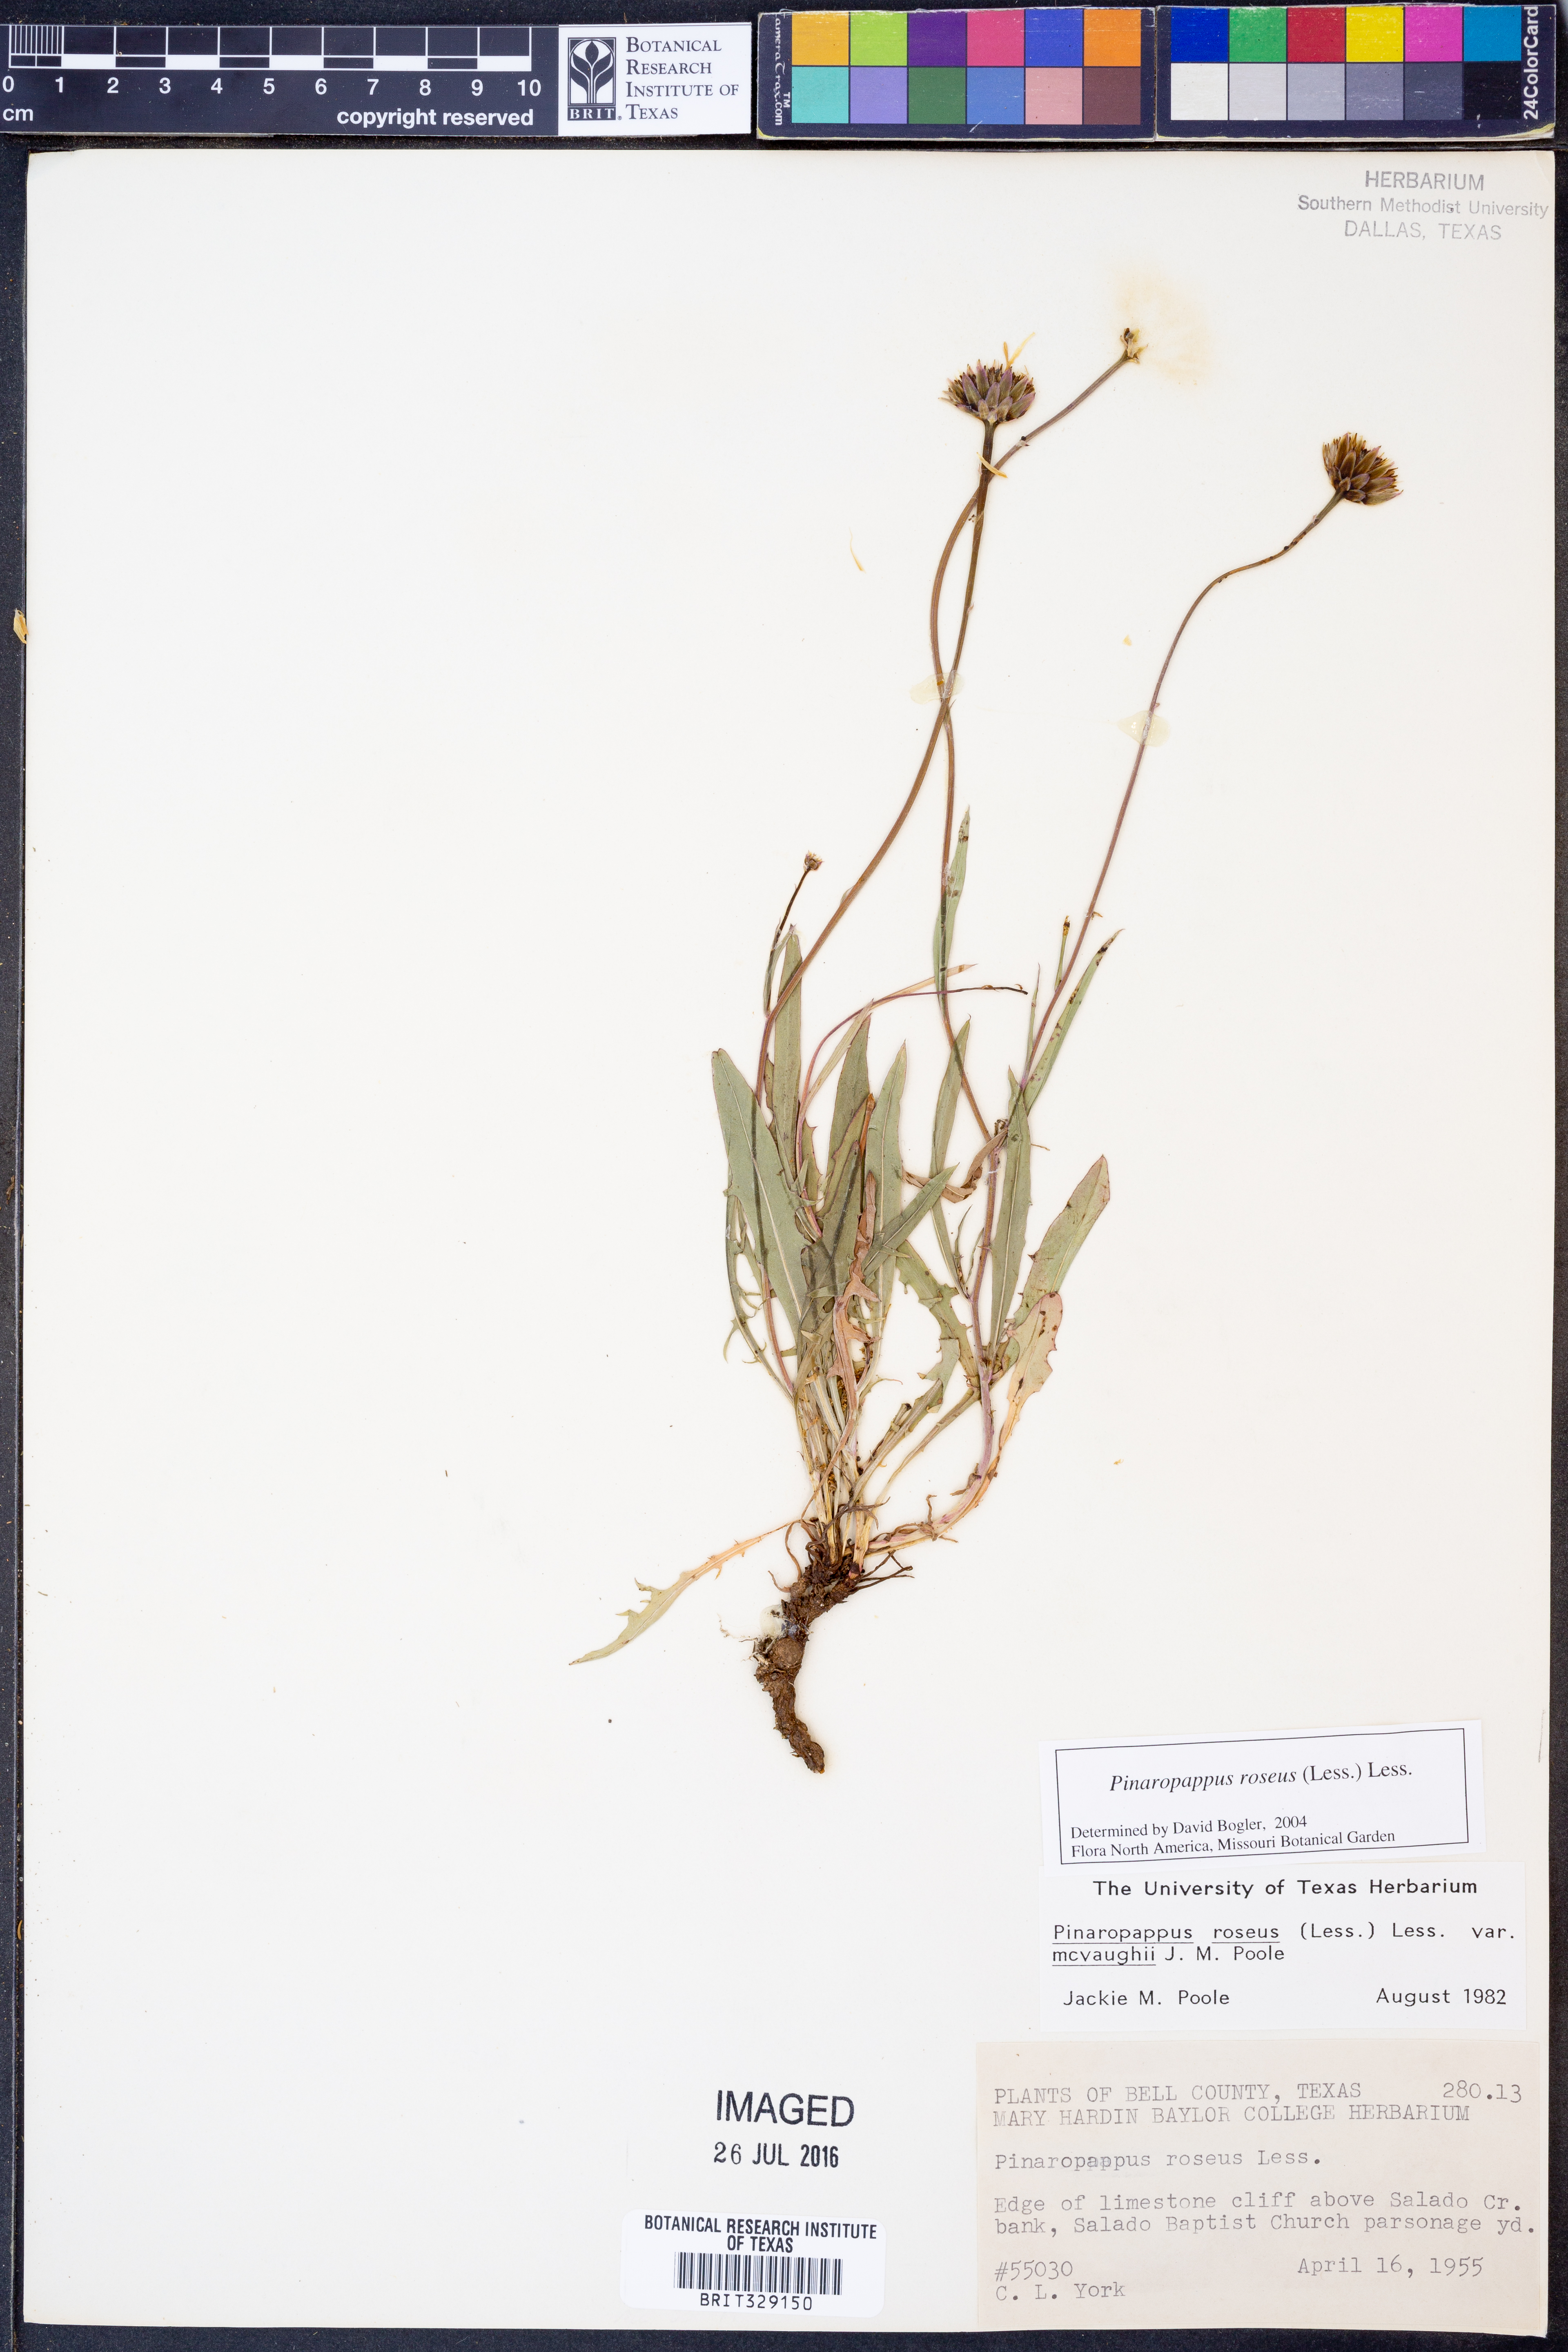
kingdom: Plantae
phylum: Tracheophyta
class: Magnoliopsida
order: Asterales
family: Asteraceae
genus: Pinaropappus
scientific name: Pinaropappus roseus
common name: Rock-lettuce
